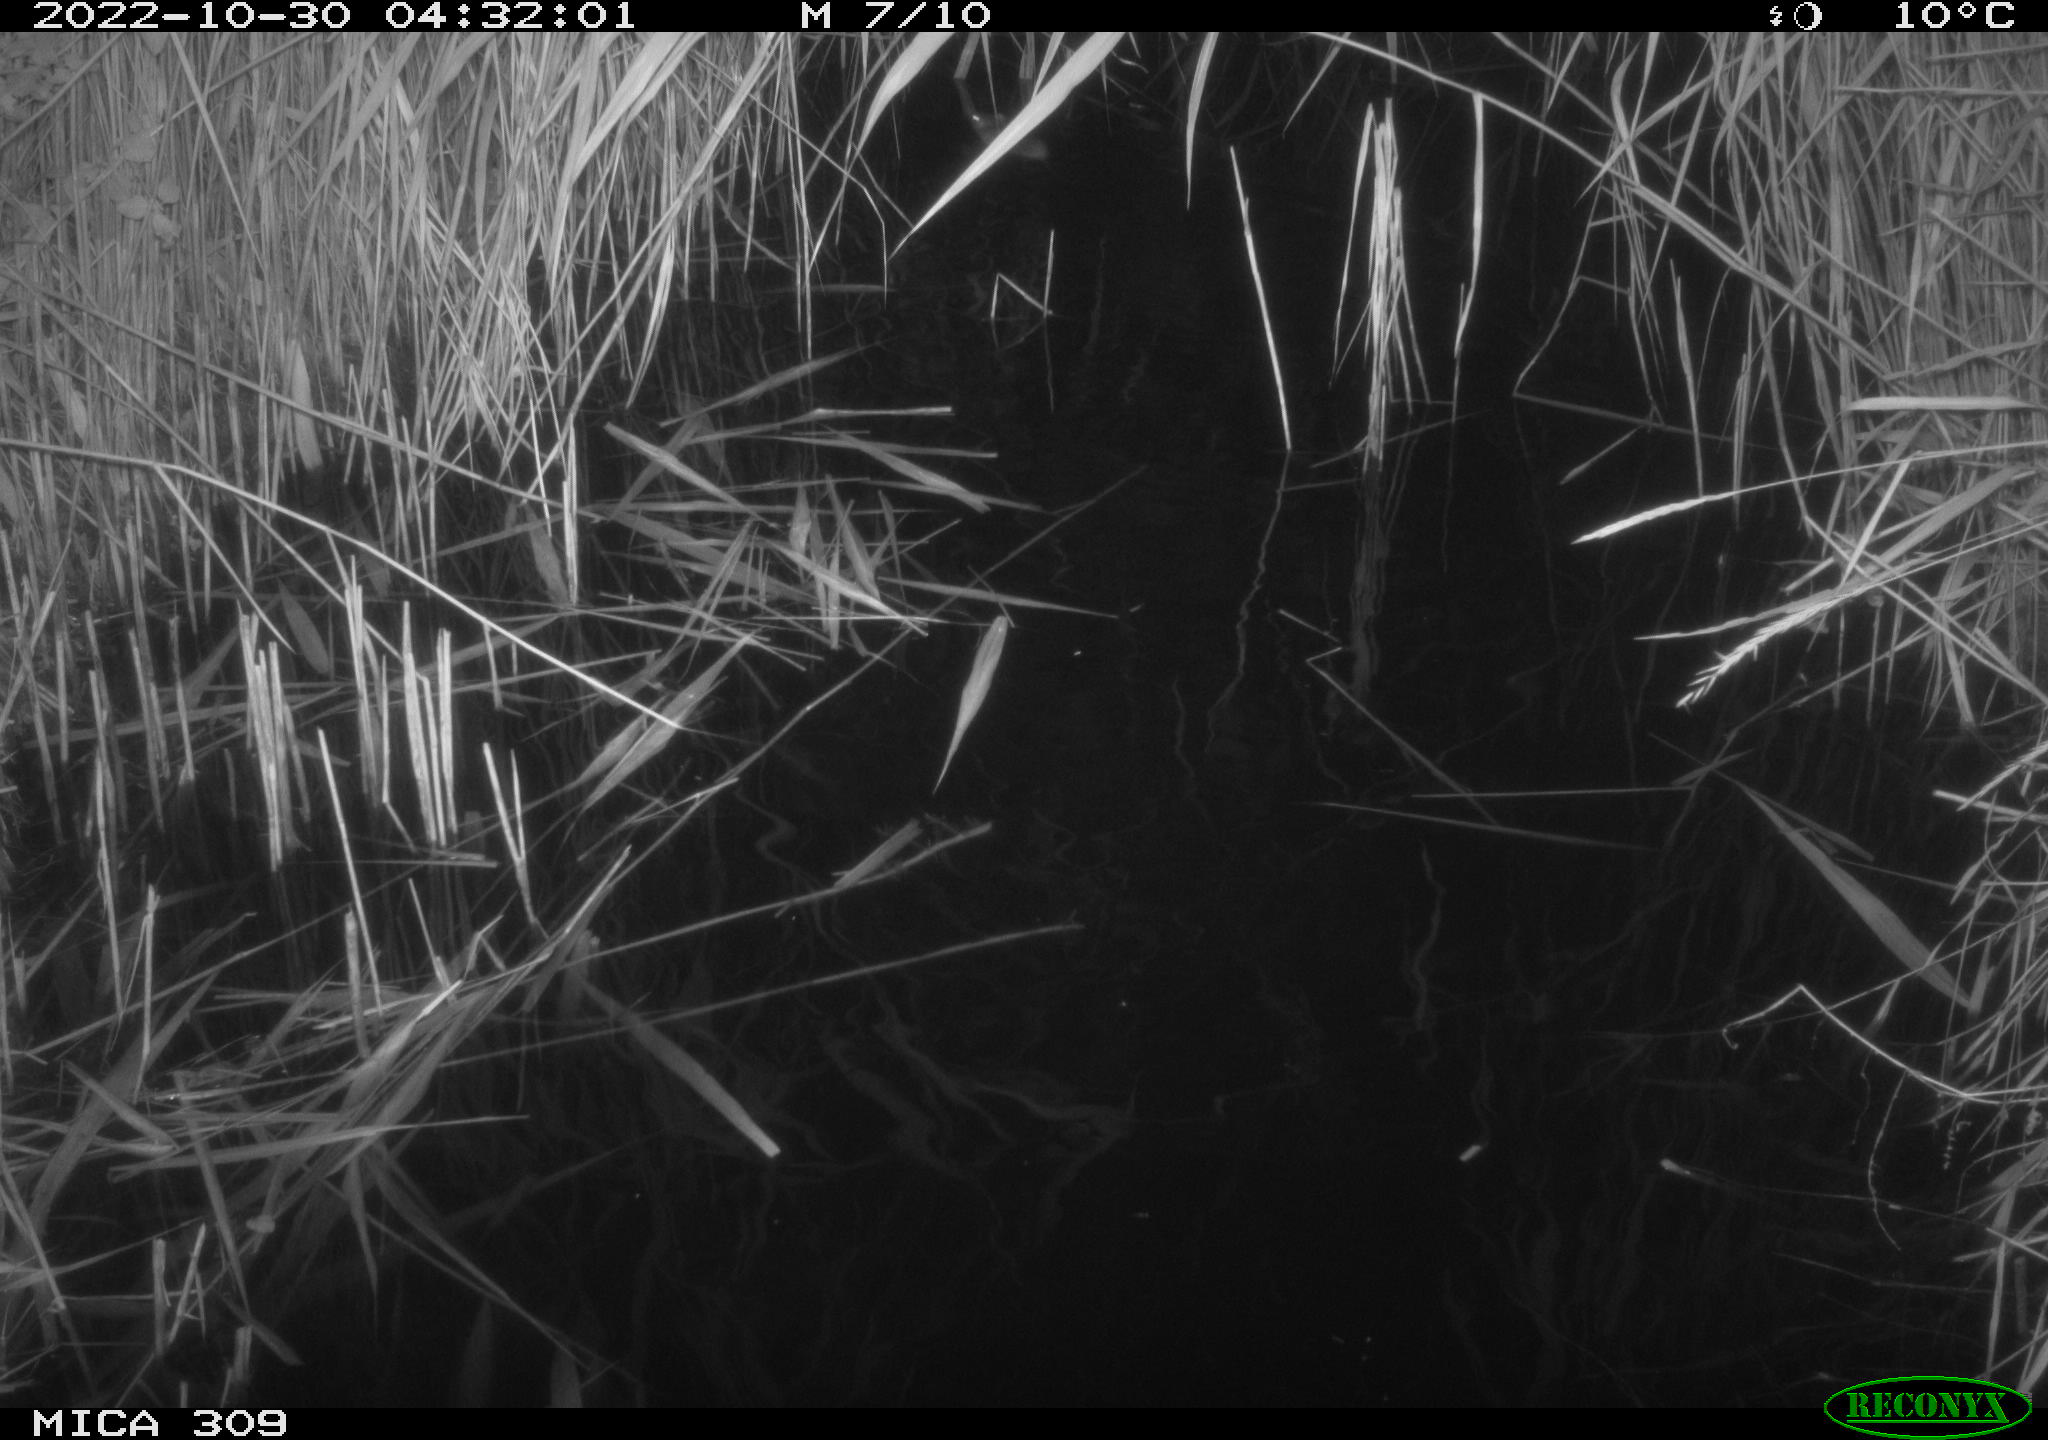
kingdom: Animalia
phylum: Chordata
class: Mammalia
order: Rodentia
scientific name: Rodentia
